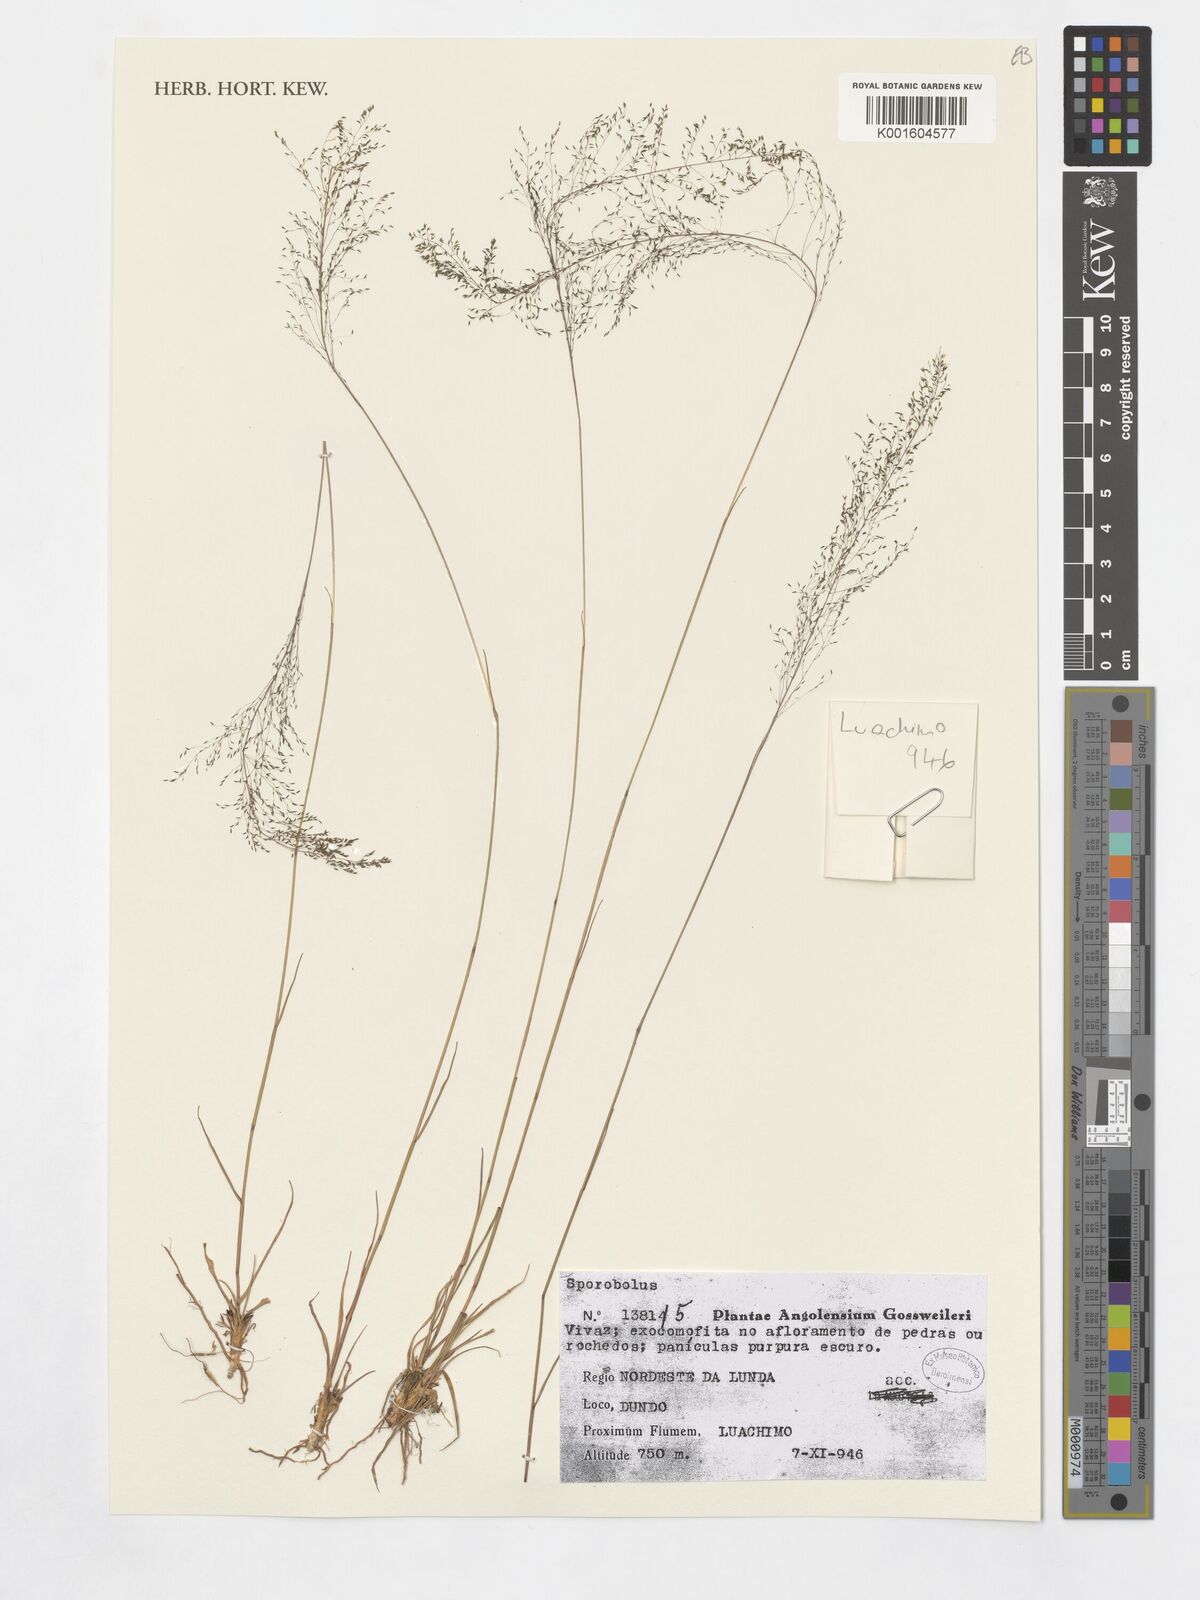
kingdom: Plantae
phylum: Tracheophyta
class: Liliopsida
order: Poales
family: Poaceae
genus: Sporobolus
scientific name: Sporobolus
